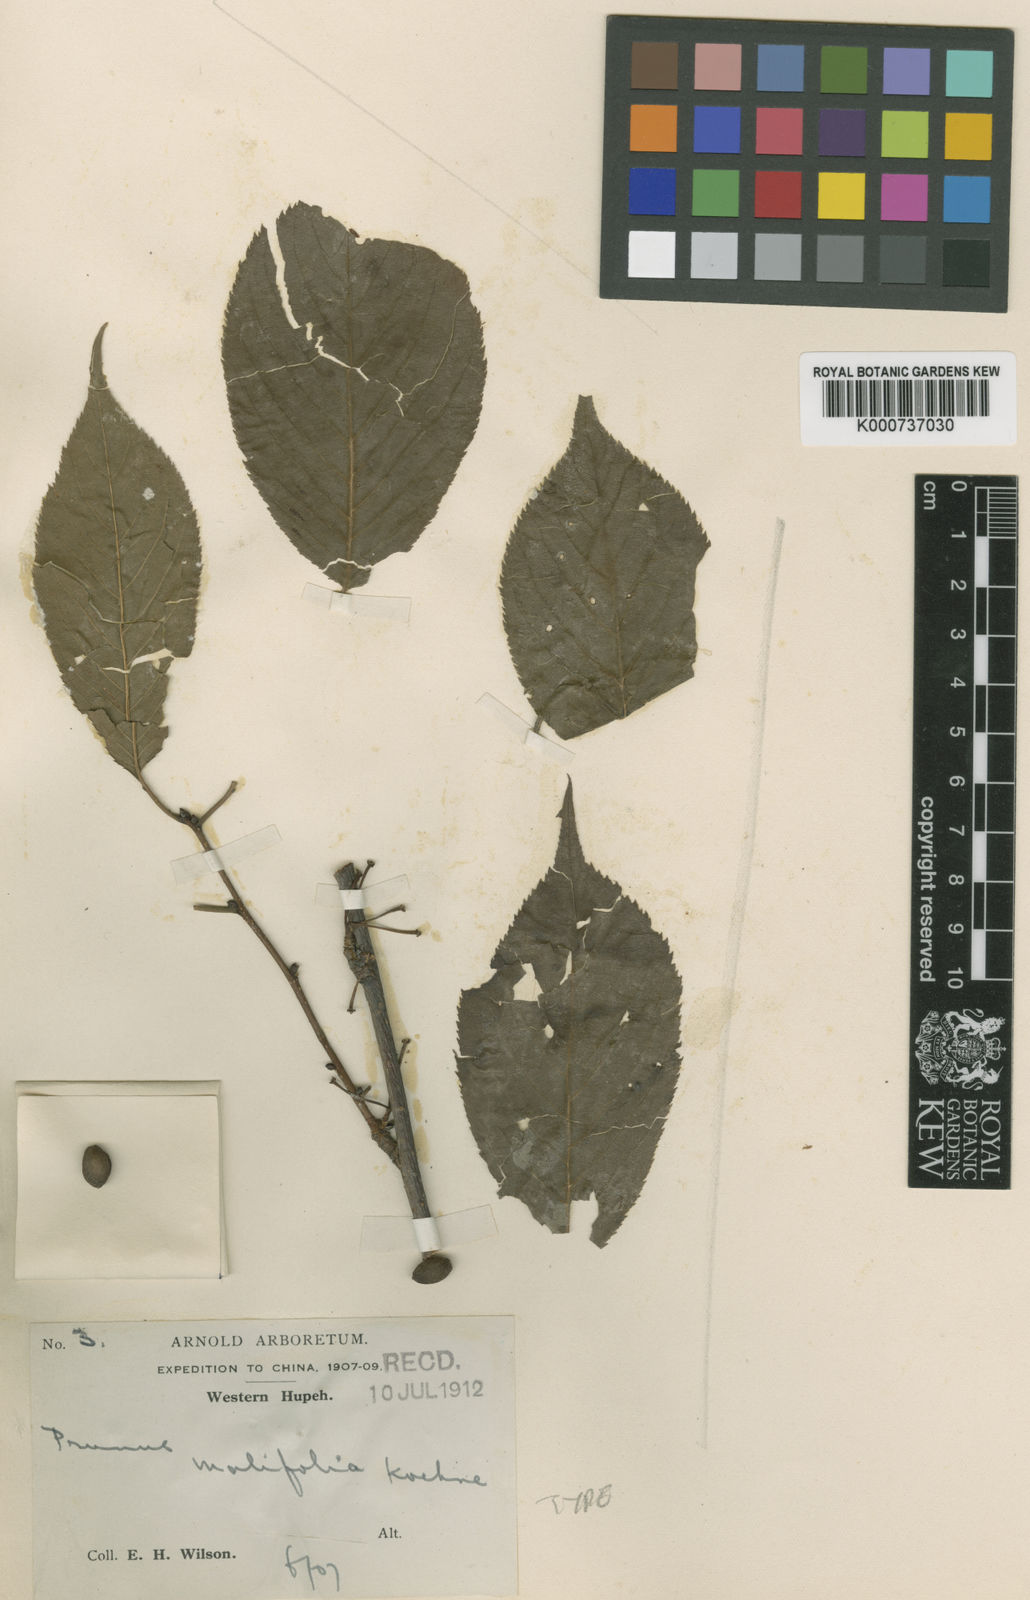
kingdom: Plantae
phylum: Tracheophyta
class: Magnoliopsida
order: Rosales
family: Rosaceae
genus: Prunus
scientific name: Prunus cyclamina
